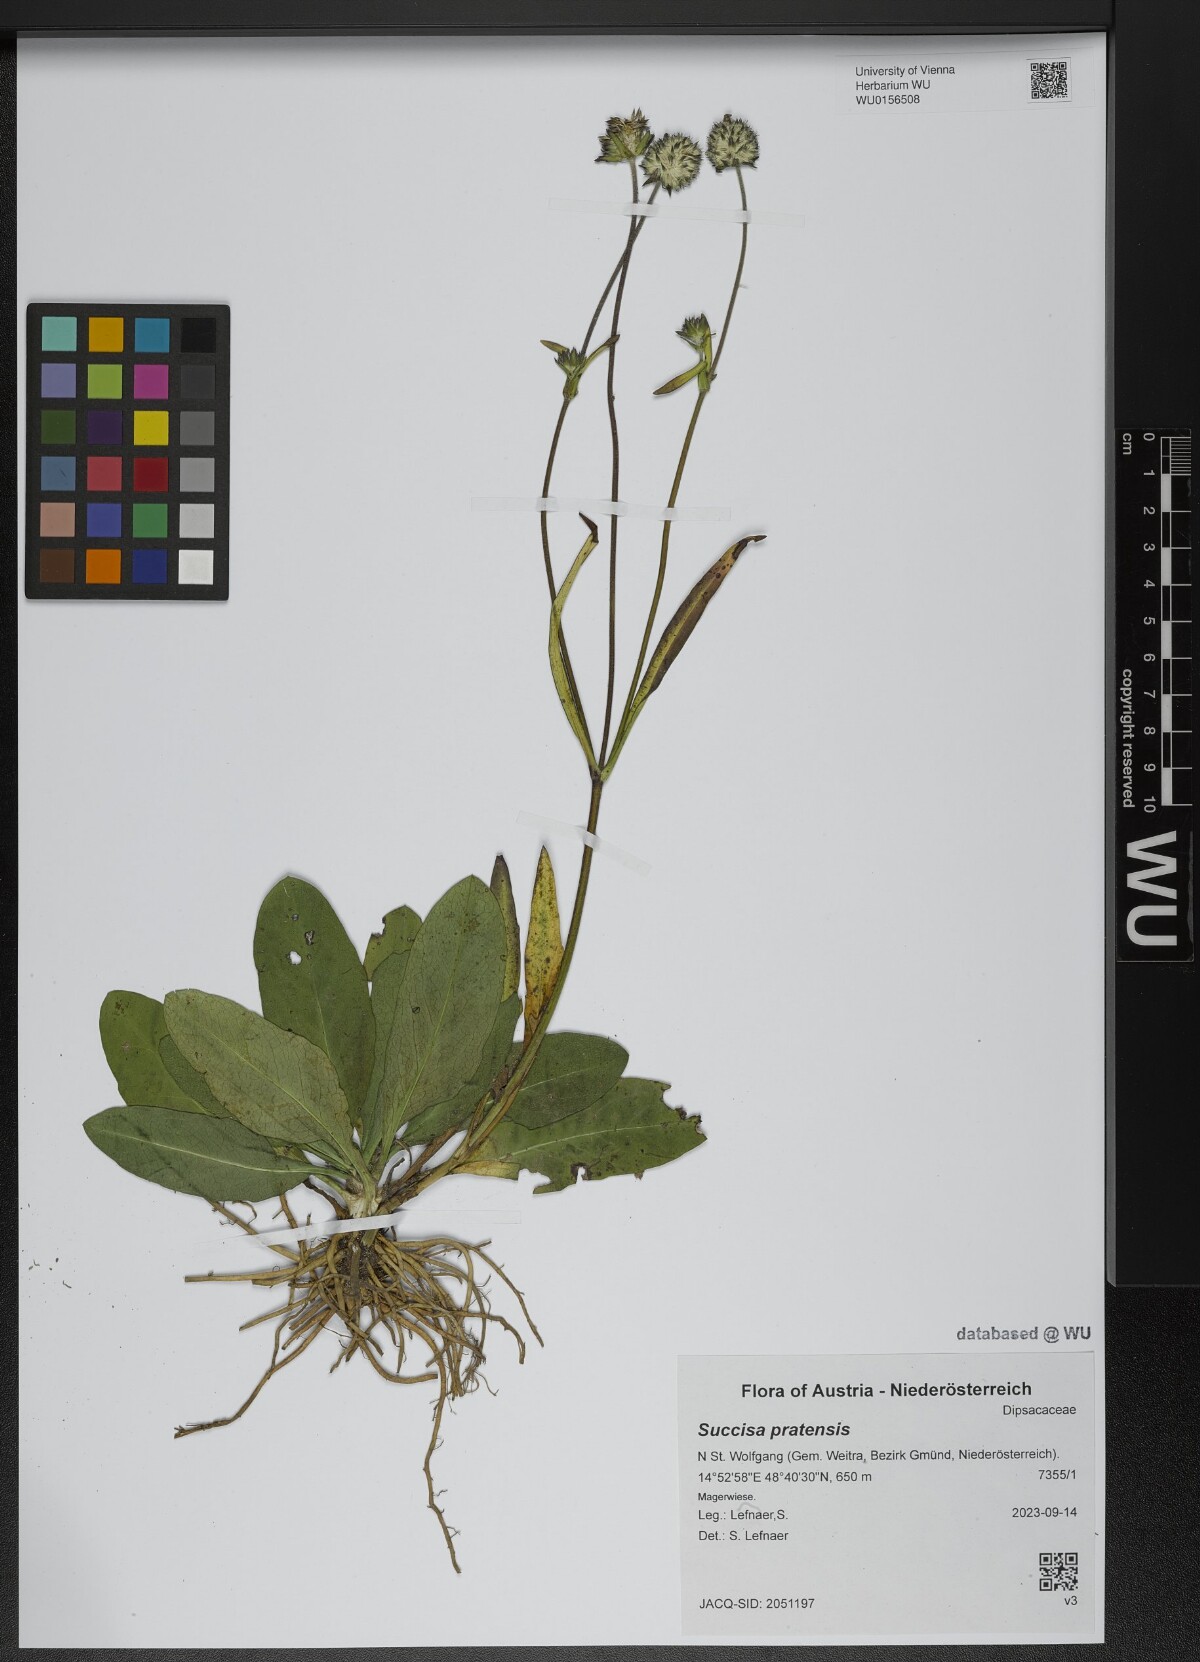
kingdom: Plantae
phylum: Tracheophyta
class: Magnoliopsida
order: Dipsacales
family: Caprifoliaceae
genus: Succisa
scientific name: Succisa pratensis
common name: Devil's-bit
